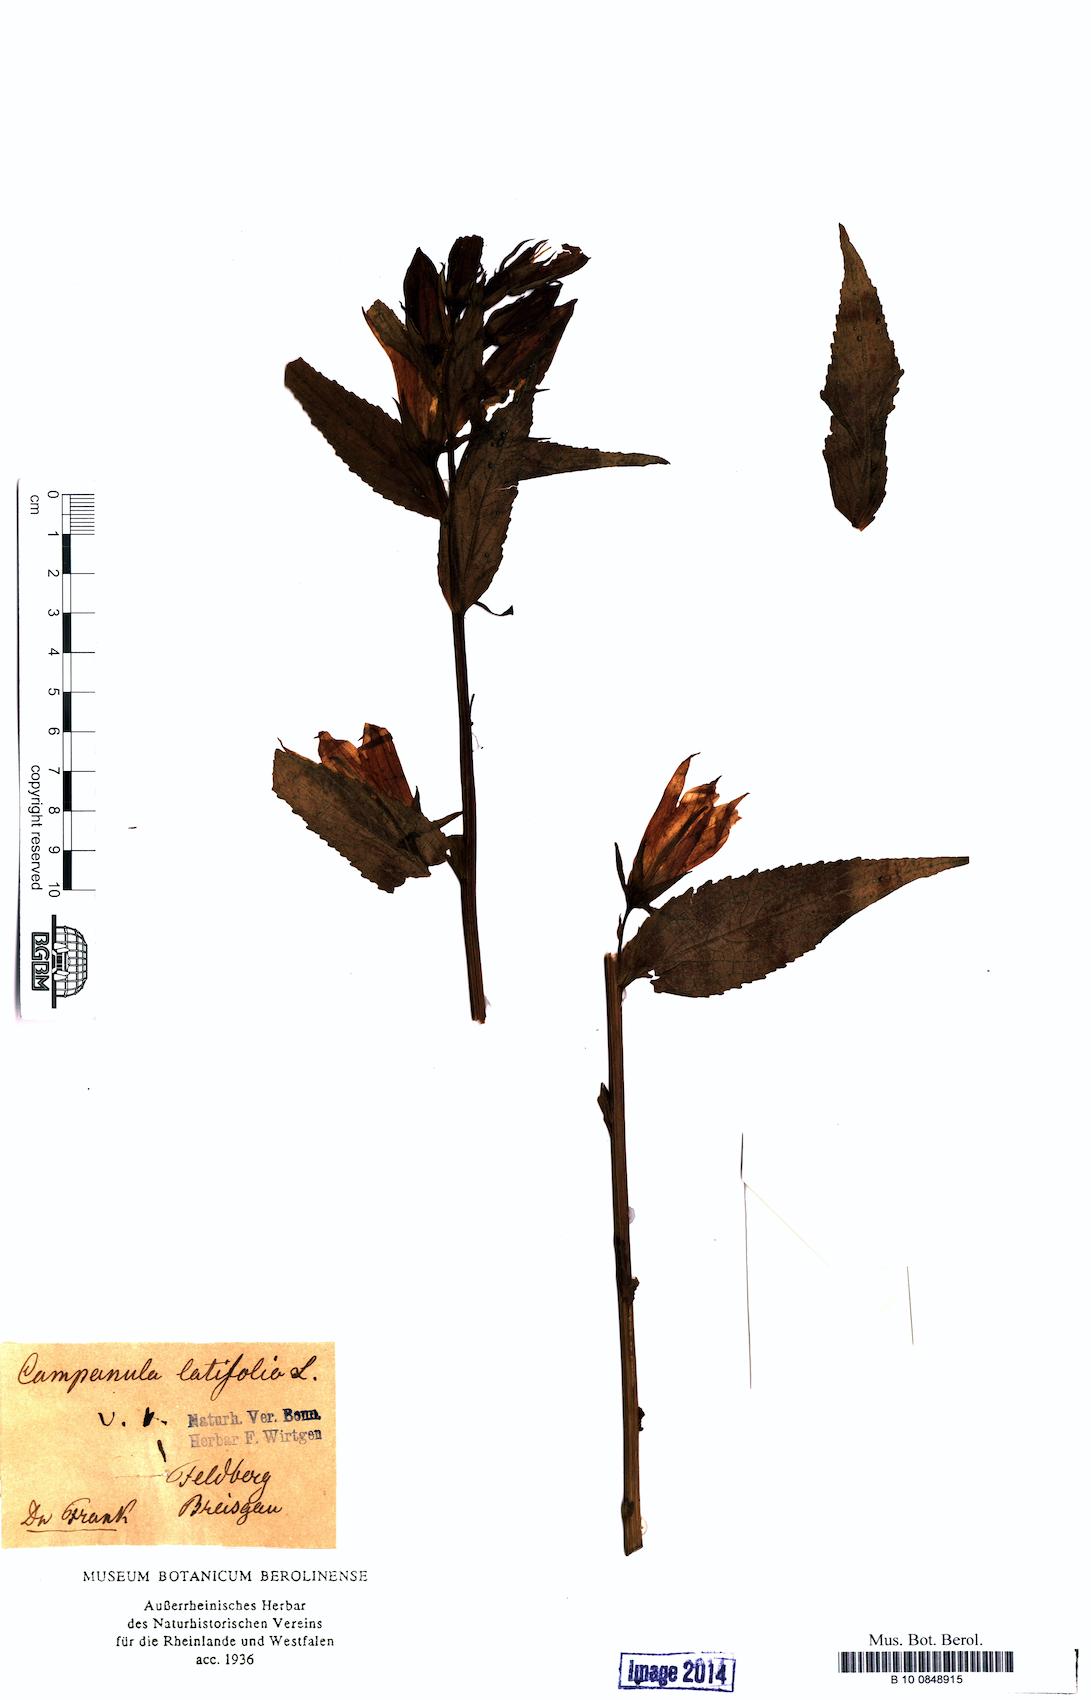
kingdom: Plantae
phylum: Tracheophyta
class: Magnoliopsida
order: Asterales
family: Campanulaceae
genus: Campanula
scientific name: Campanula latifolia
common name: Giant bellflower
